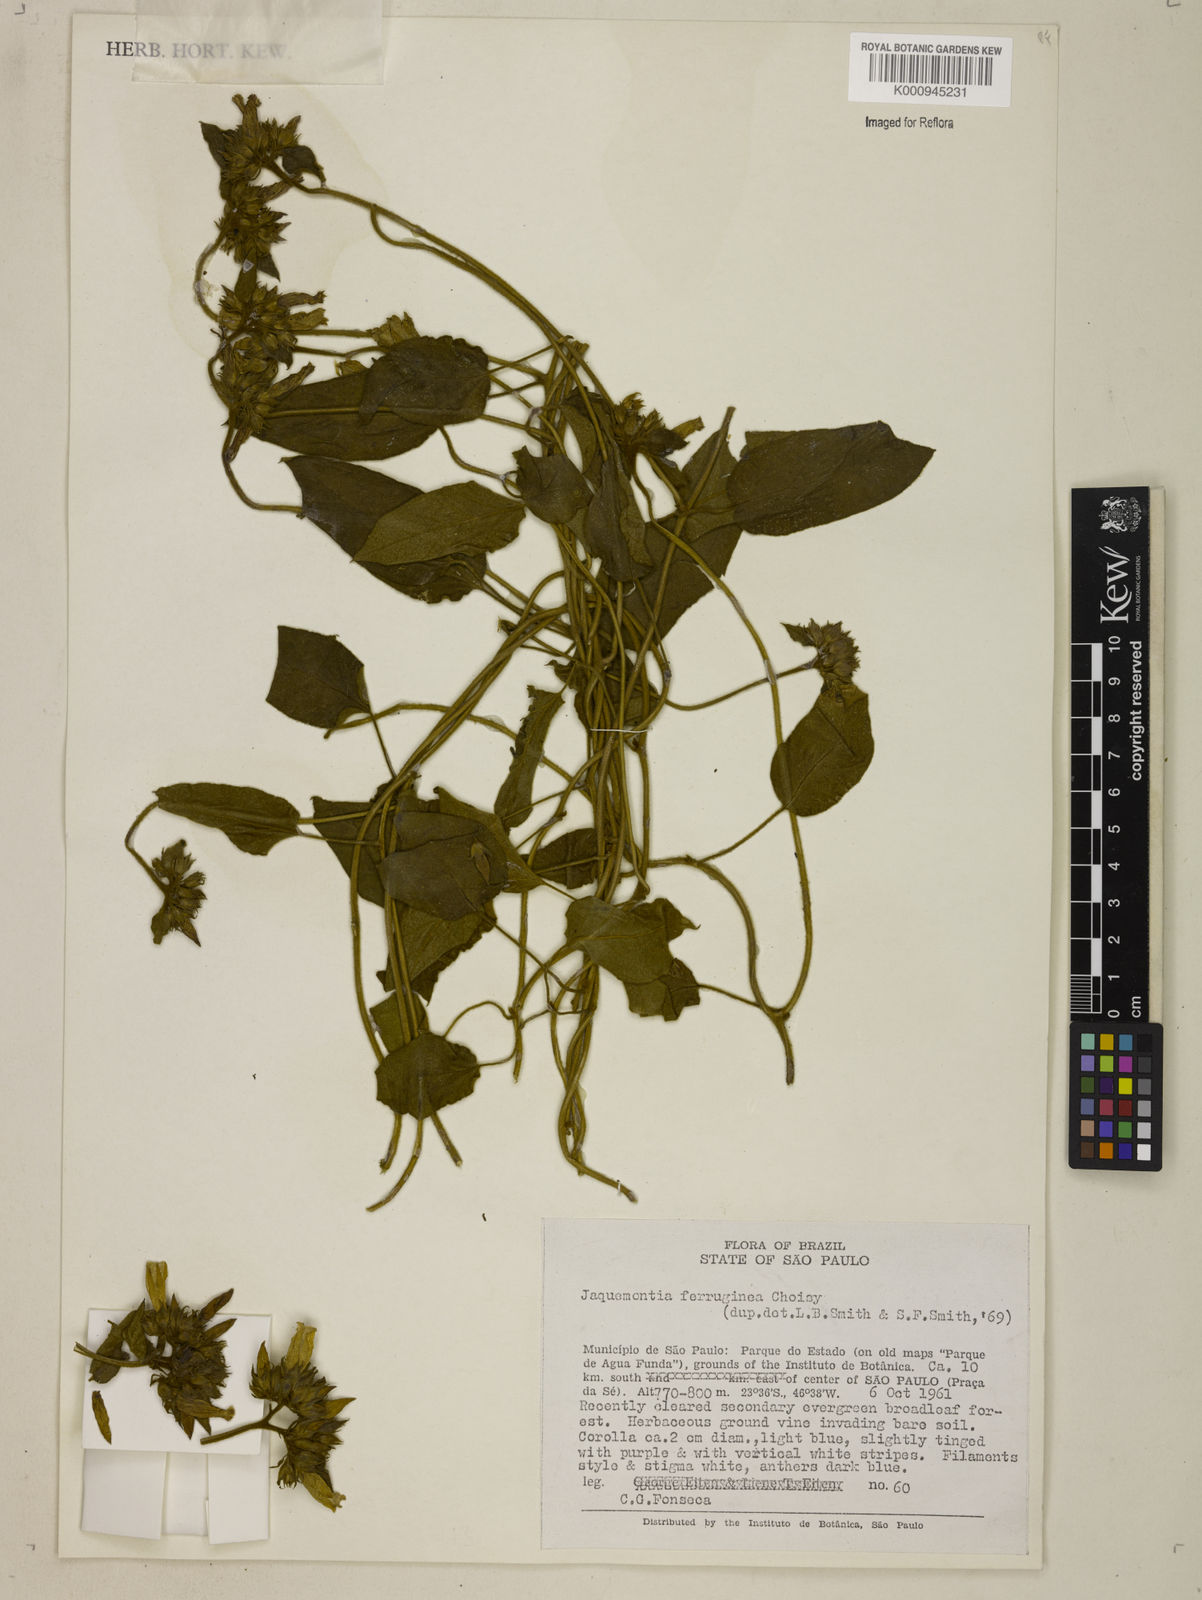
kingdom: Plantae
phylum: Tracheophyta
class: Magnoliopsida
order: Solanales
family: Convolvulaceae
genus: Jacquemontia
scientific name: Jacquemontia cumanensis
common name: Thicket clustervine
